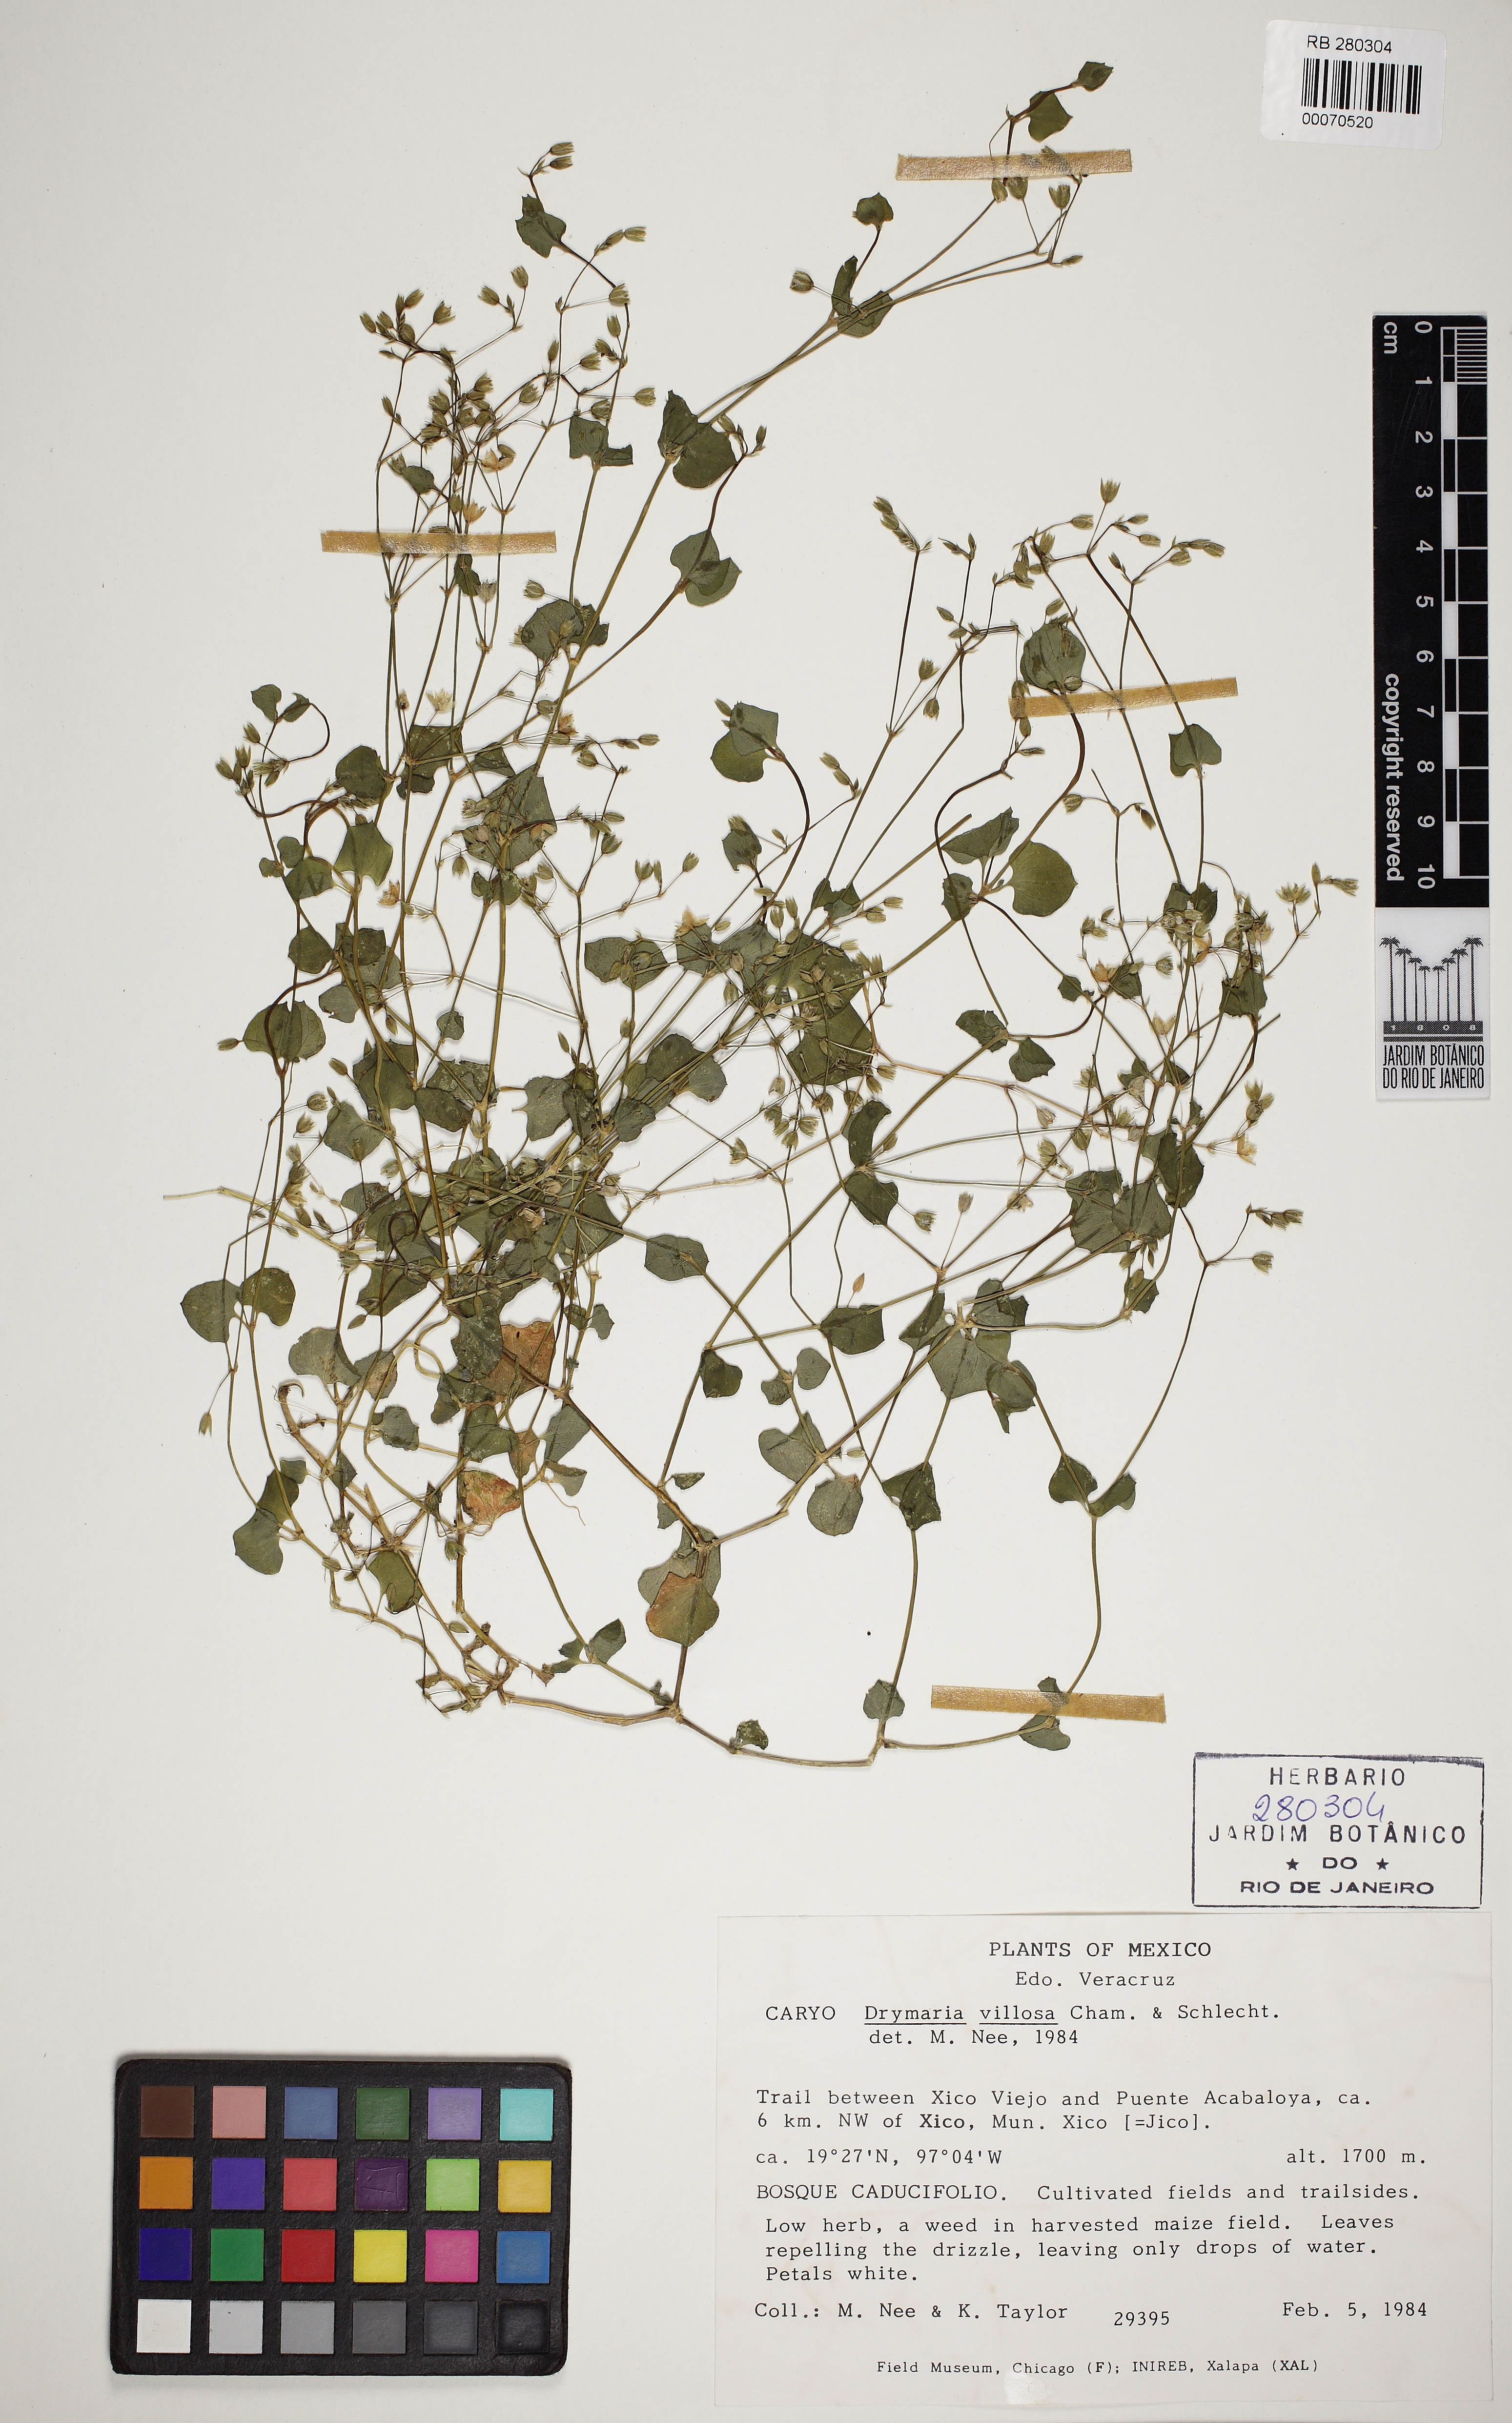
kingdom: Plantae
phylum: Tracheophyta
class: Magnoliopsida
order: Caryophyllales
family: Caryophyllaceae
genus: Drymaria
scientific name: Drymaria villosa
